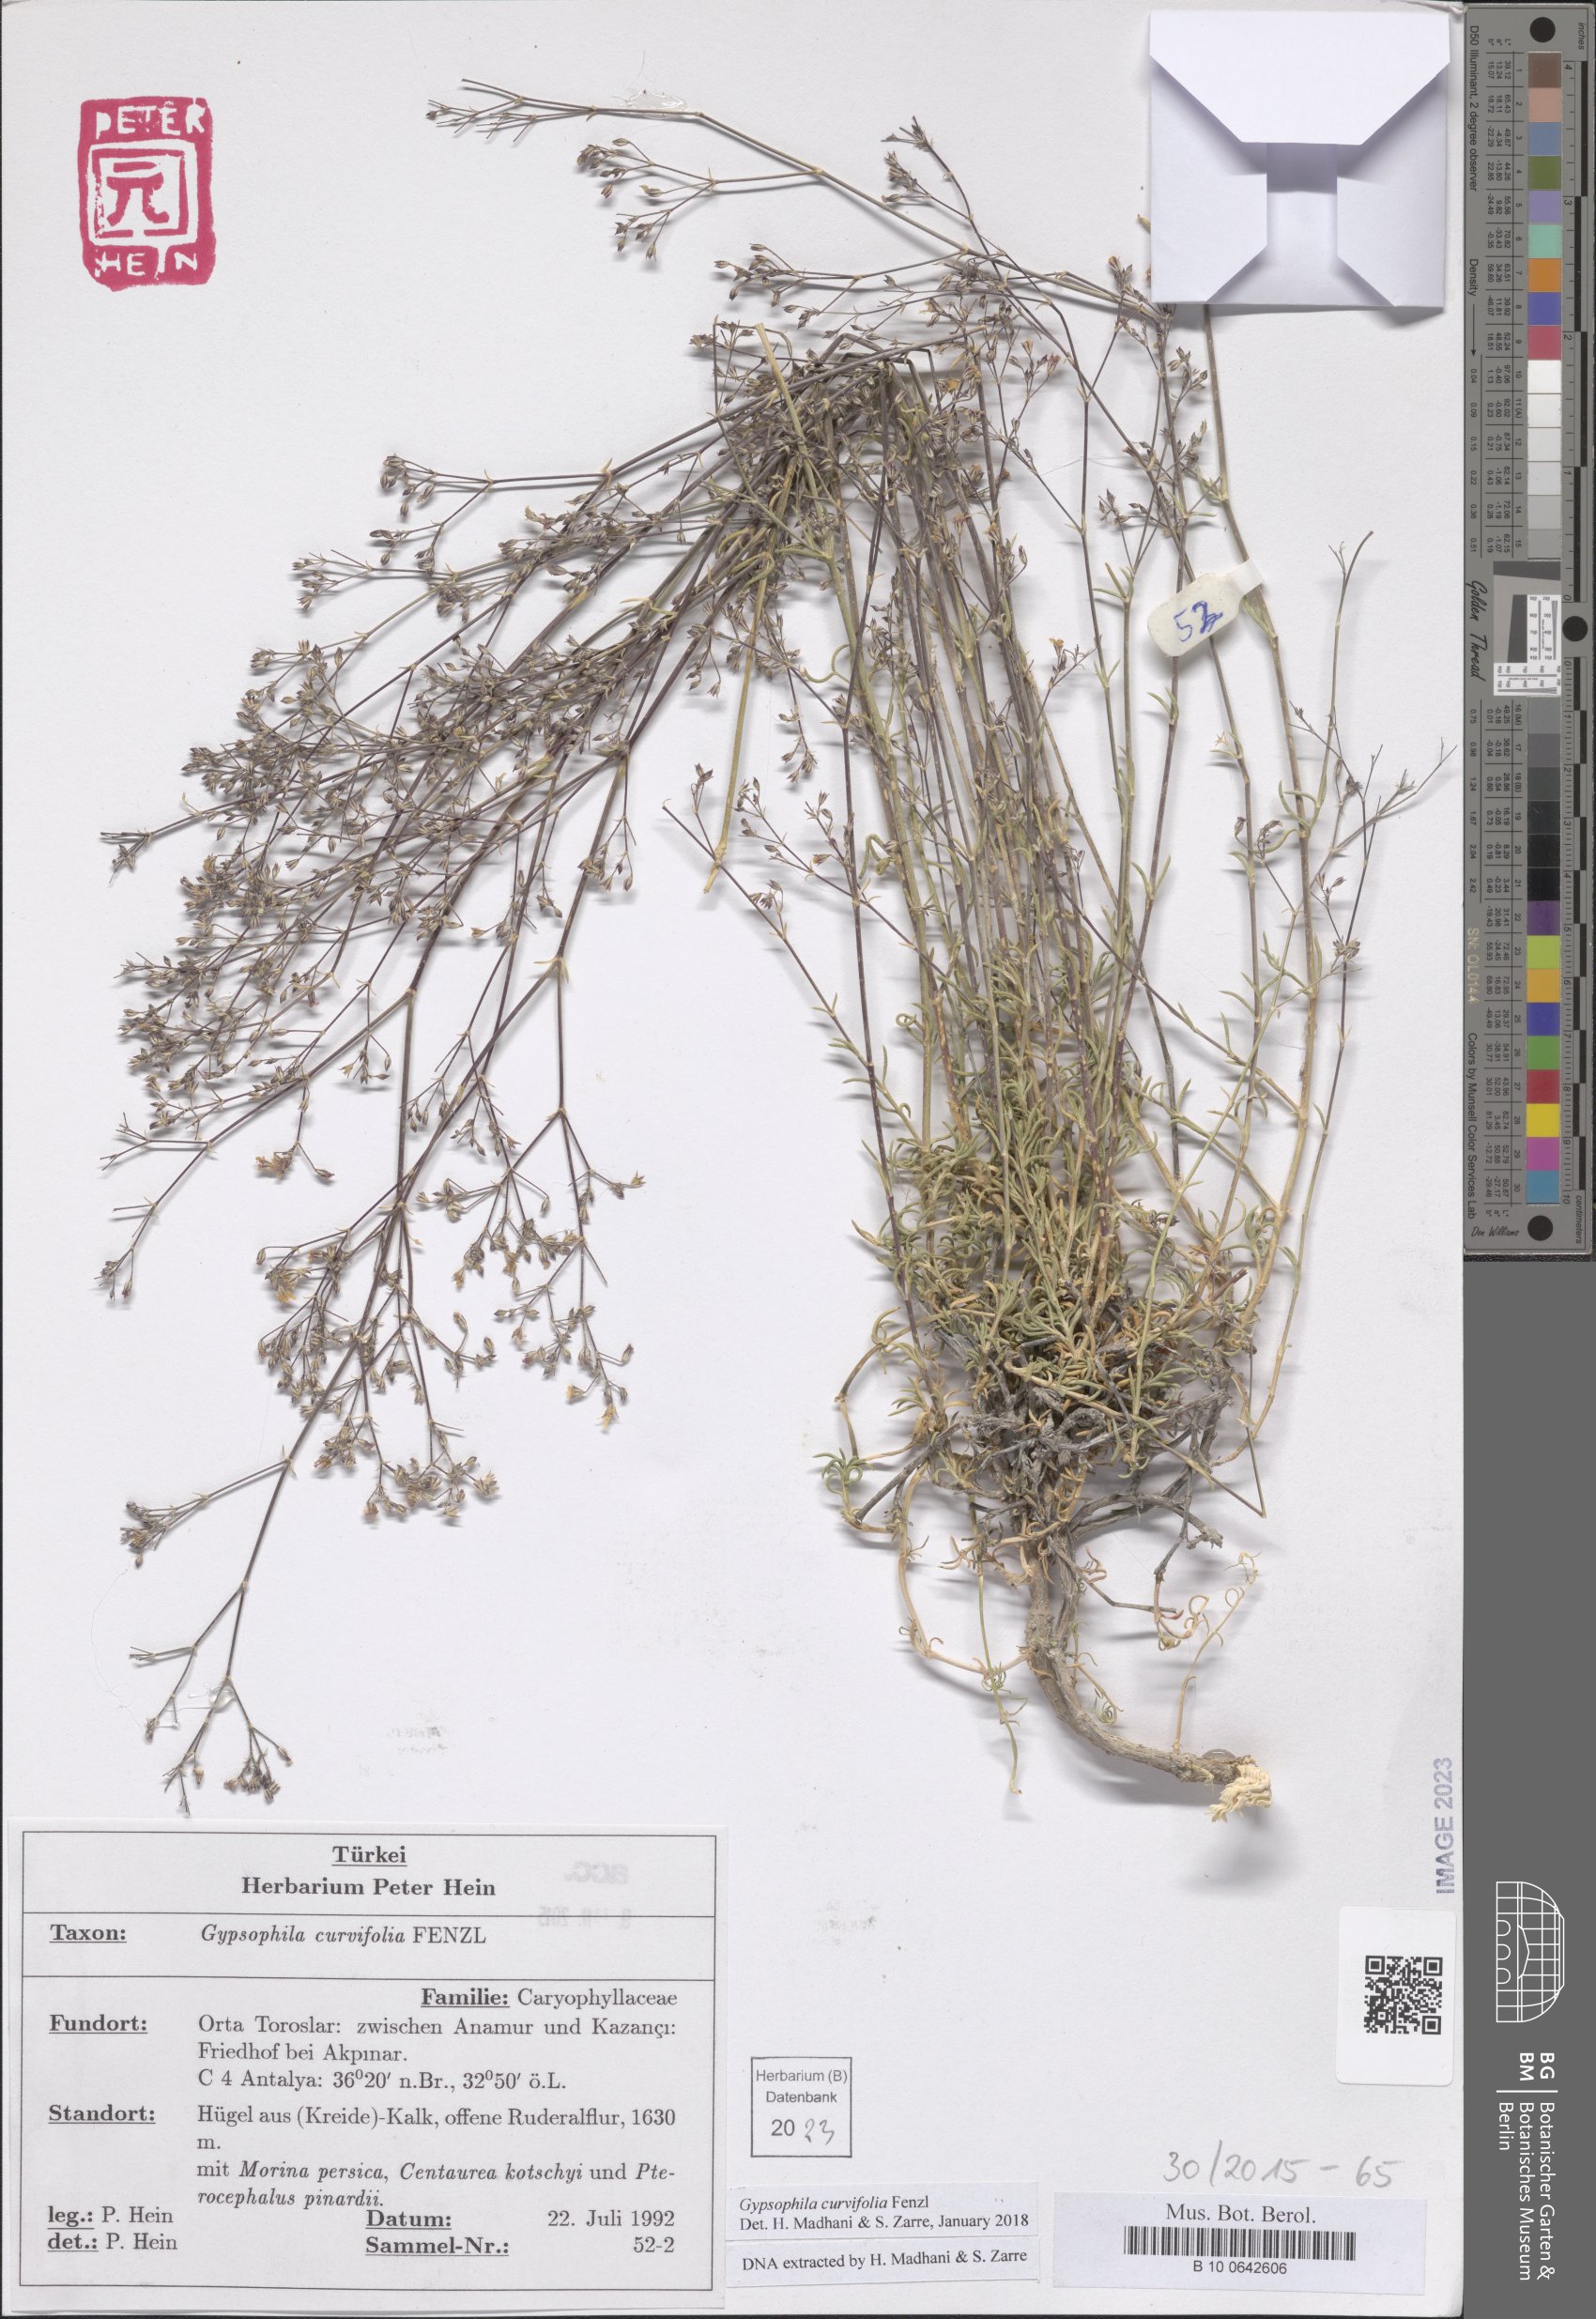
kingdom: Plantae
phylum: Tracheophyta
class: Magnoliopsida
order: Caryophyllales
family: Caryophyllaceae
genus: Gypsophila
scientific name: Gypsophila curvifolia
